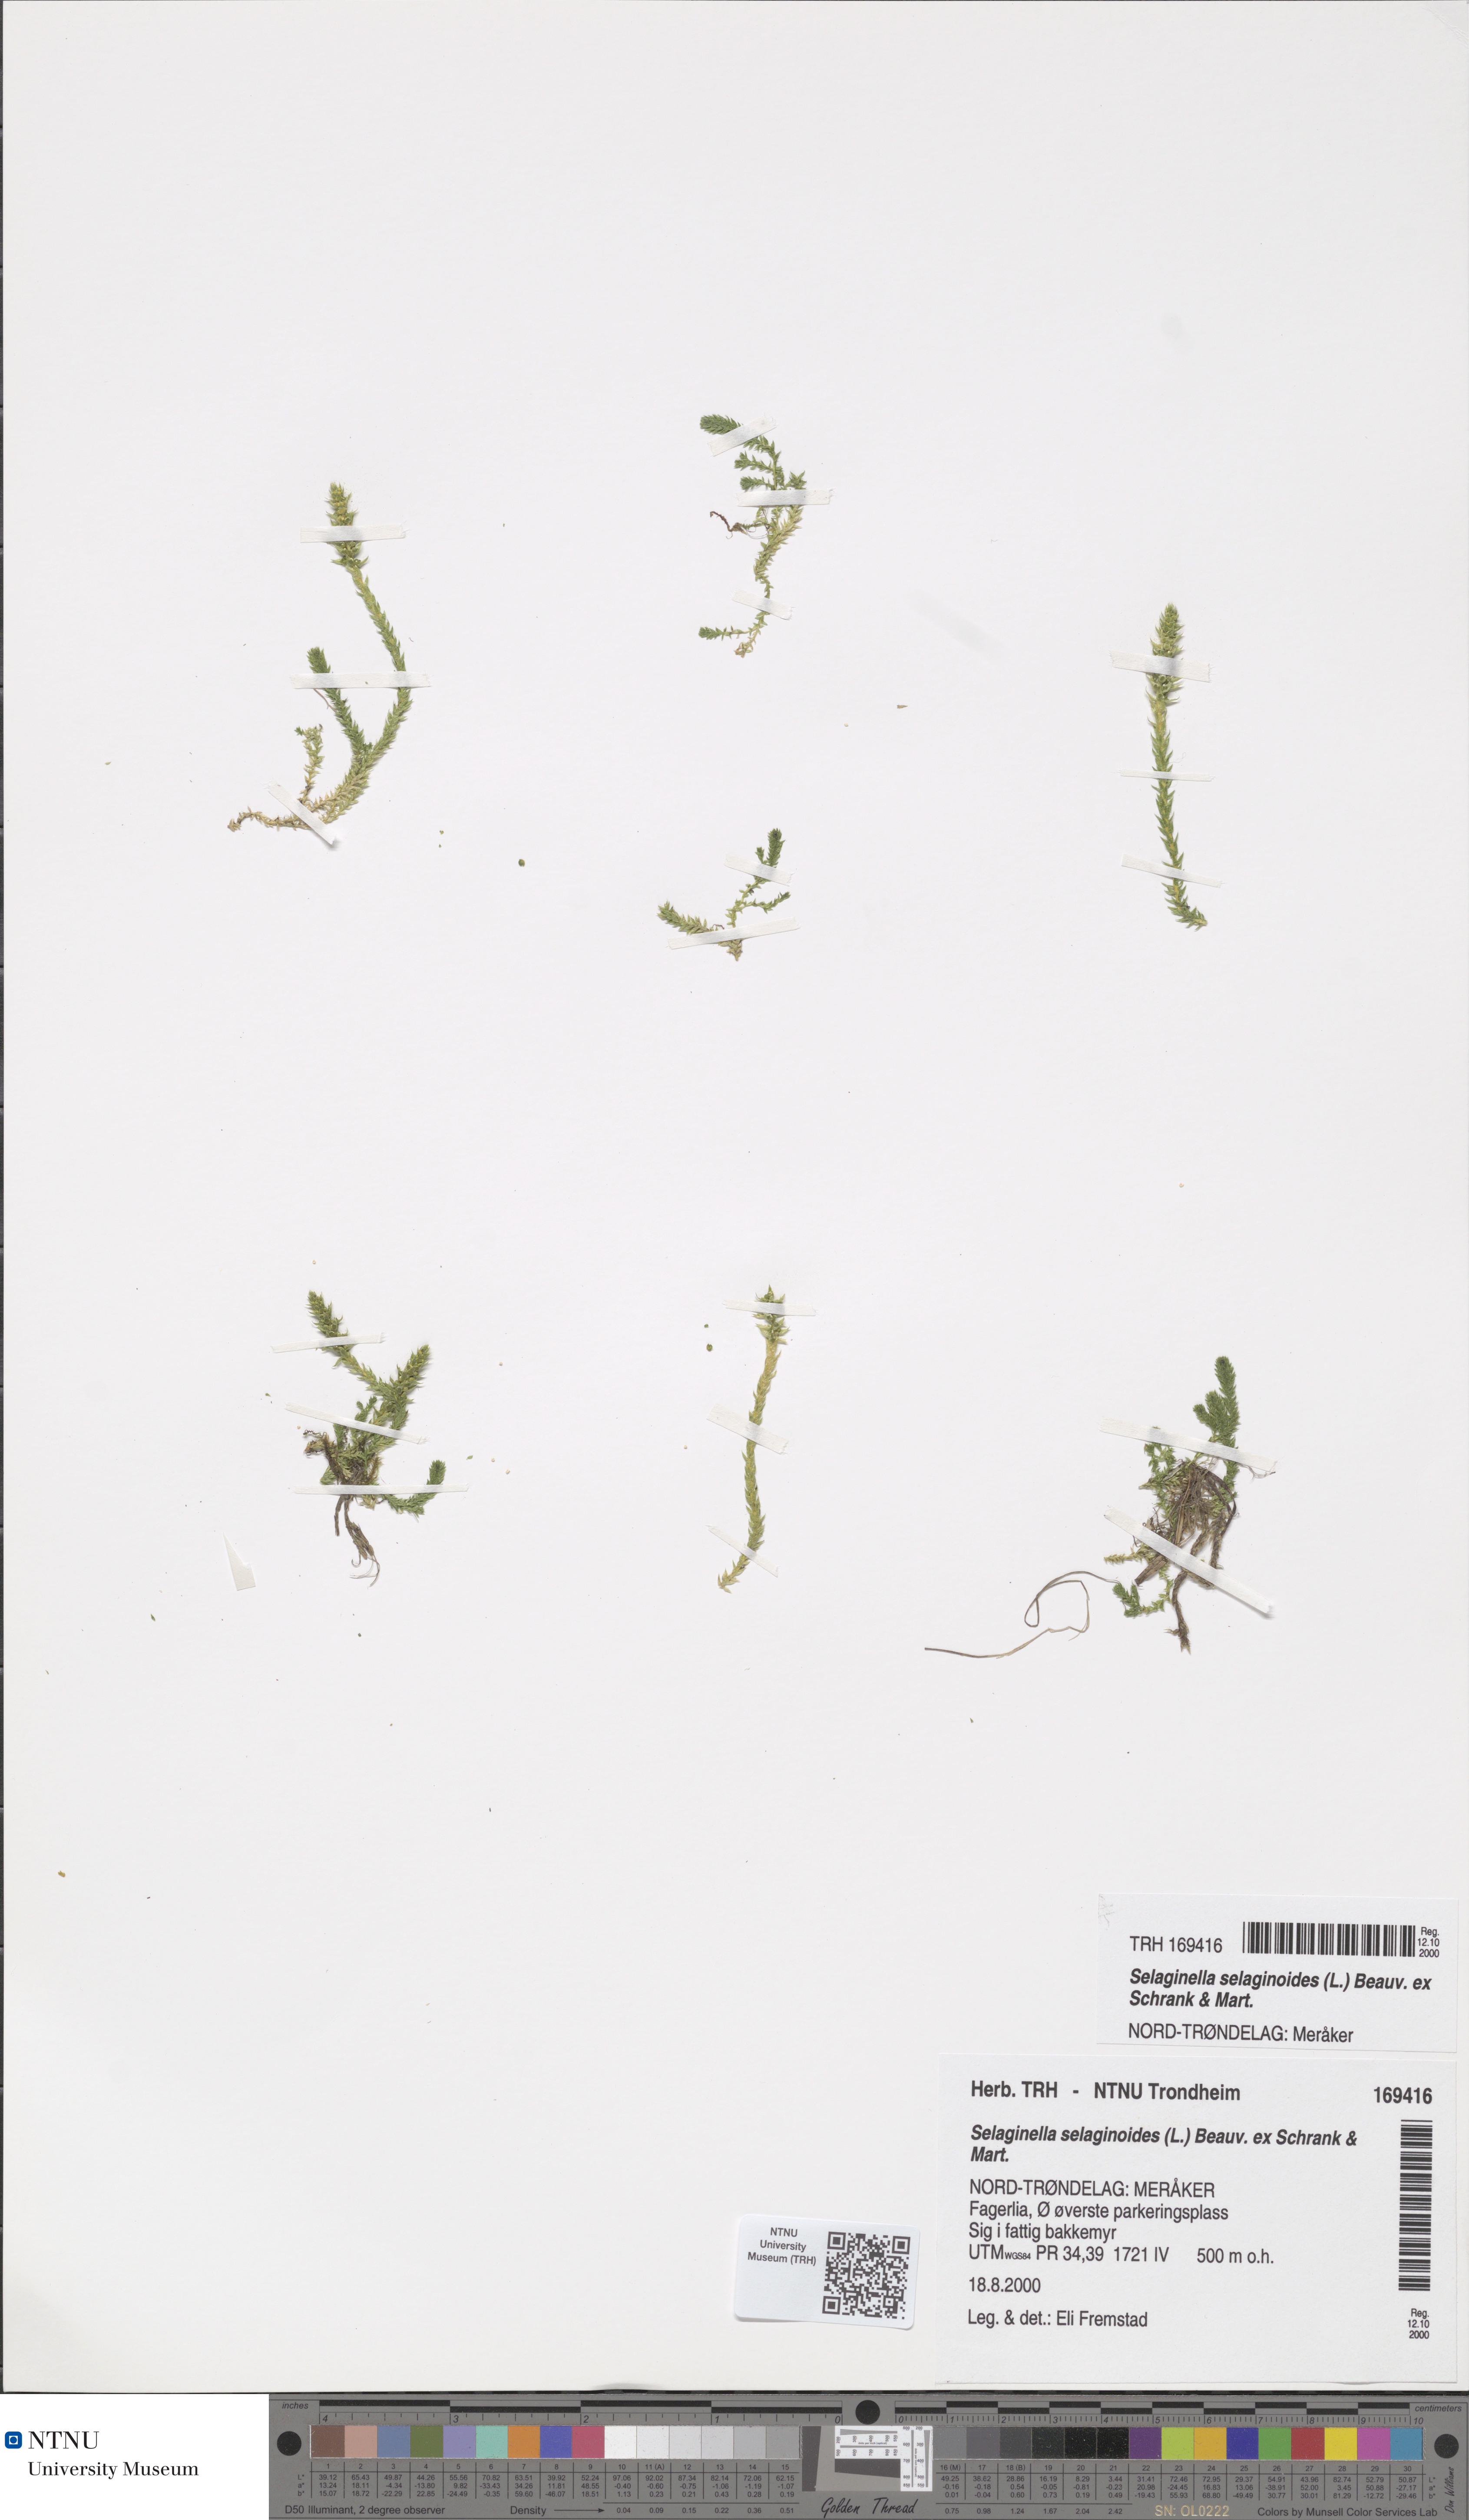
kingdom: Plantae
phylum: Tracheophyta
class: Lycopodiopsida
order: Selaginellales
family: Selaginellaceae
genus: Selaginella
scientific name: Selaginella selaginoides
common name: Prickly mountain-moss
